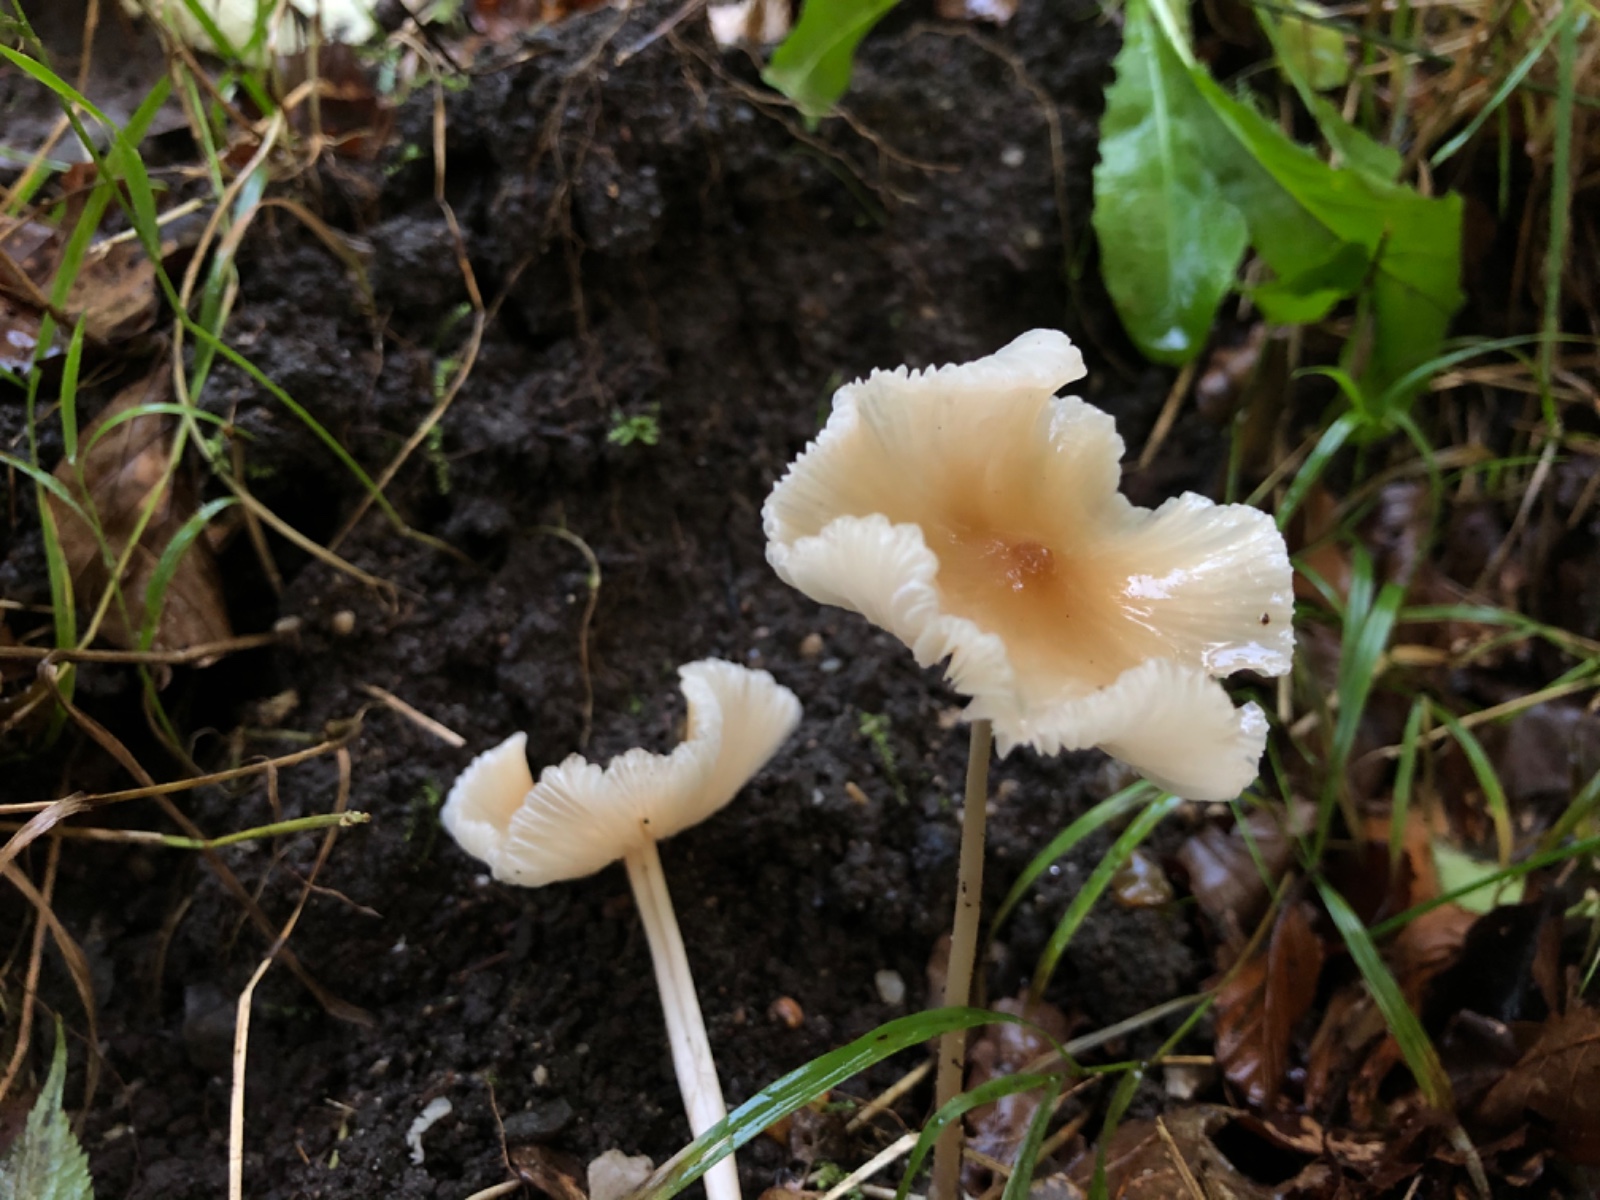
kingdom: Fungi
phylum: Basidiomycota
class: Agaricomycetes
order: Agaricales
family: Psathyrellaceae
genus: Psathyrella
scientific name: Psathyrella
